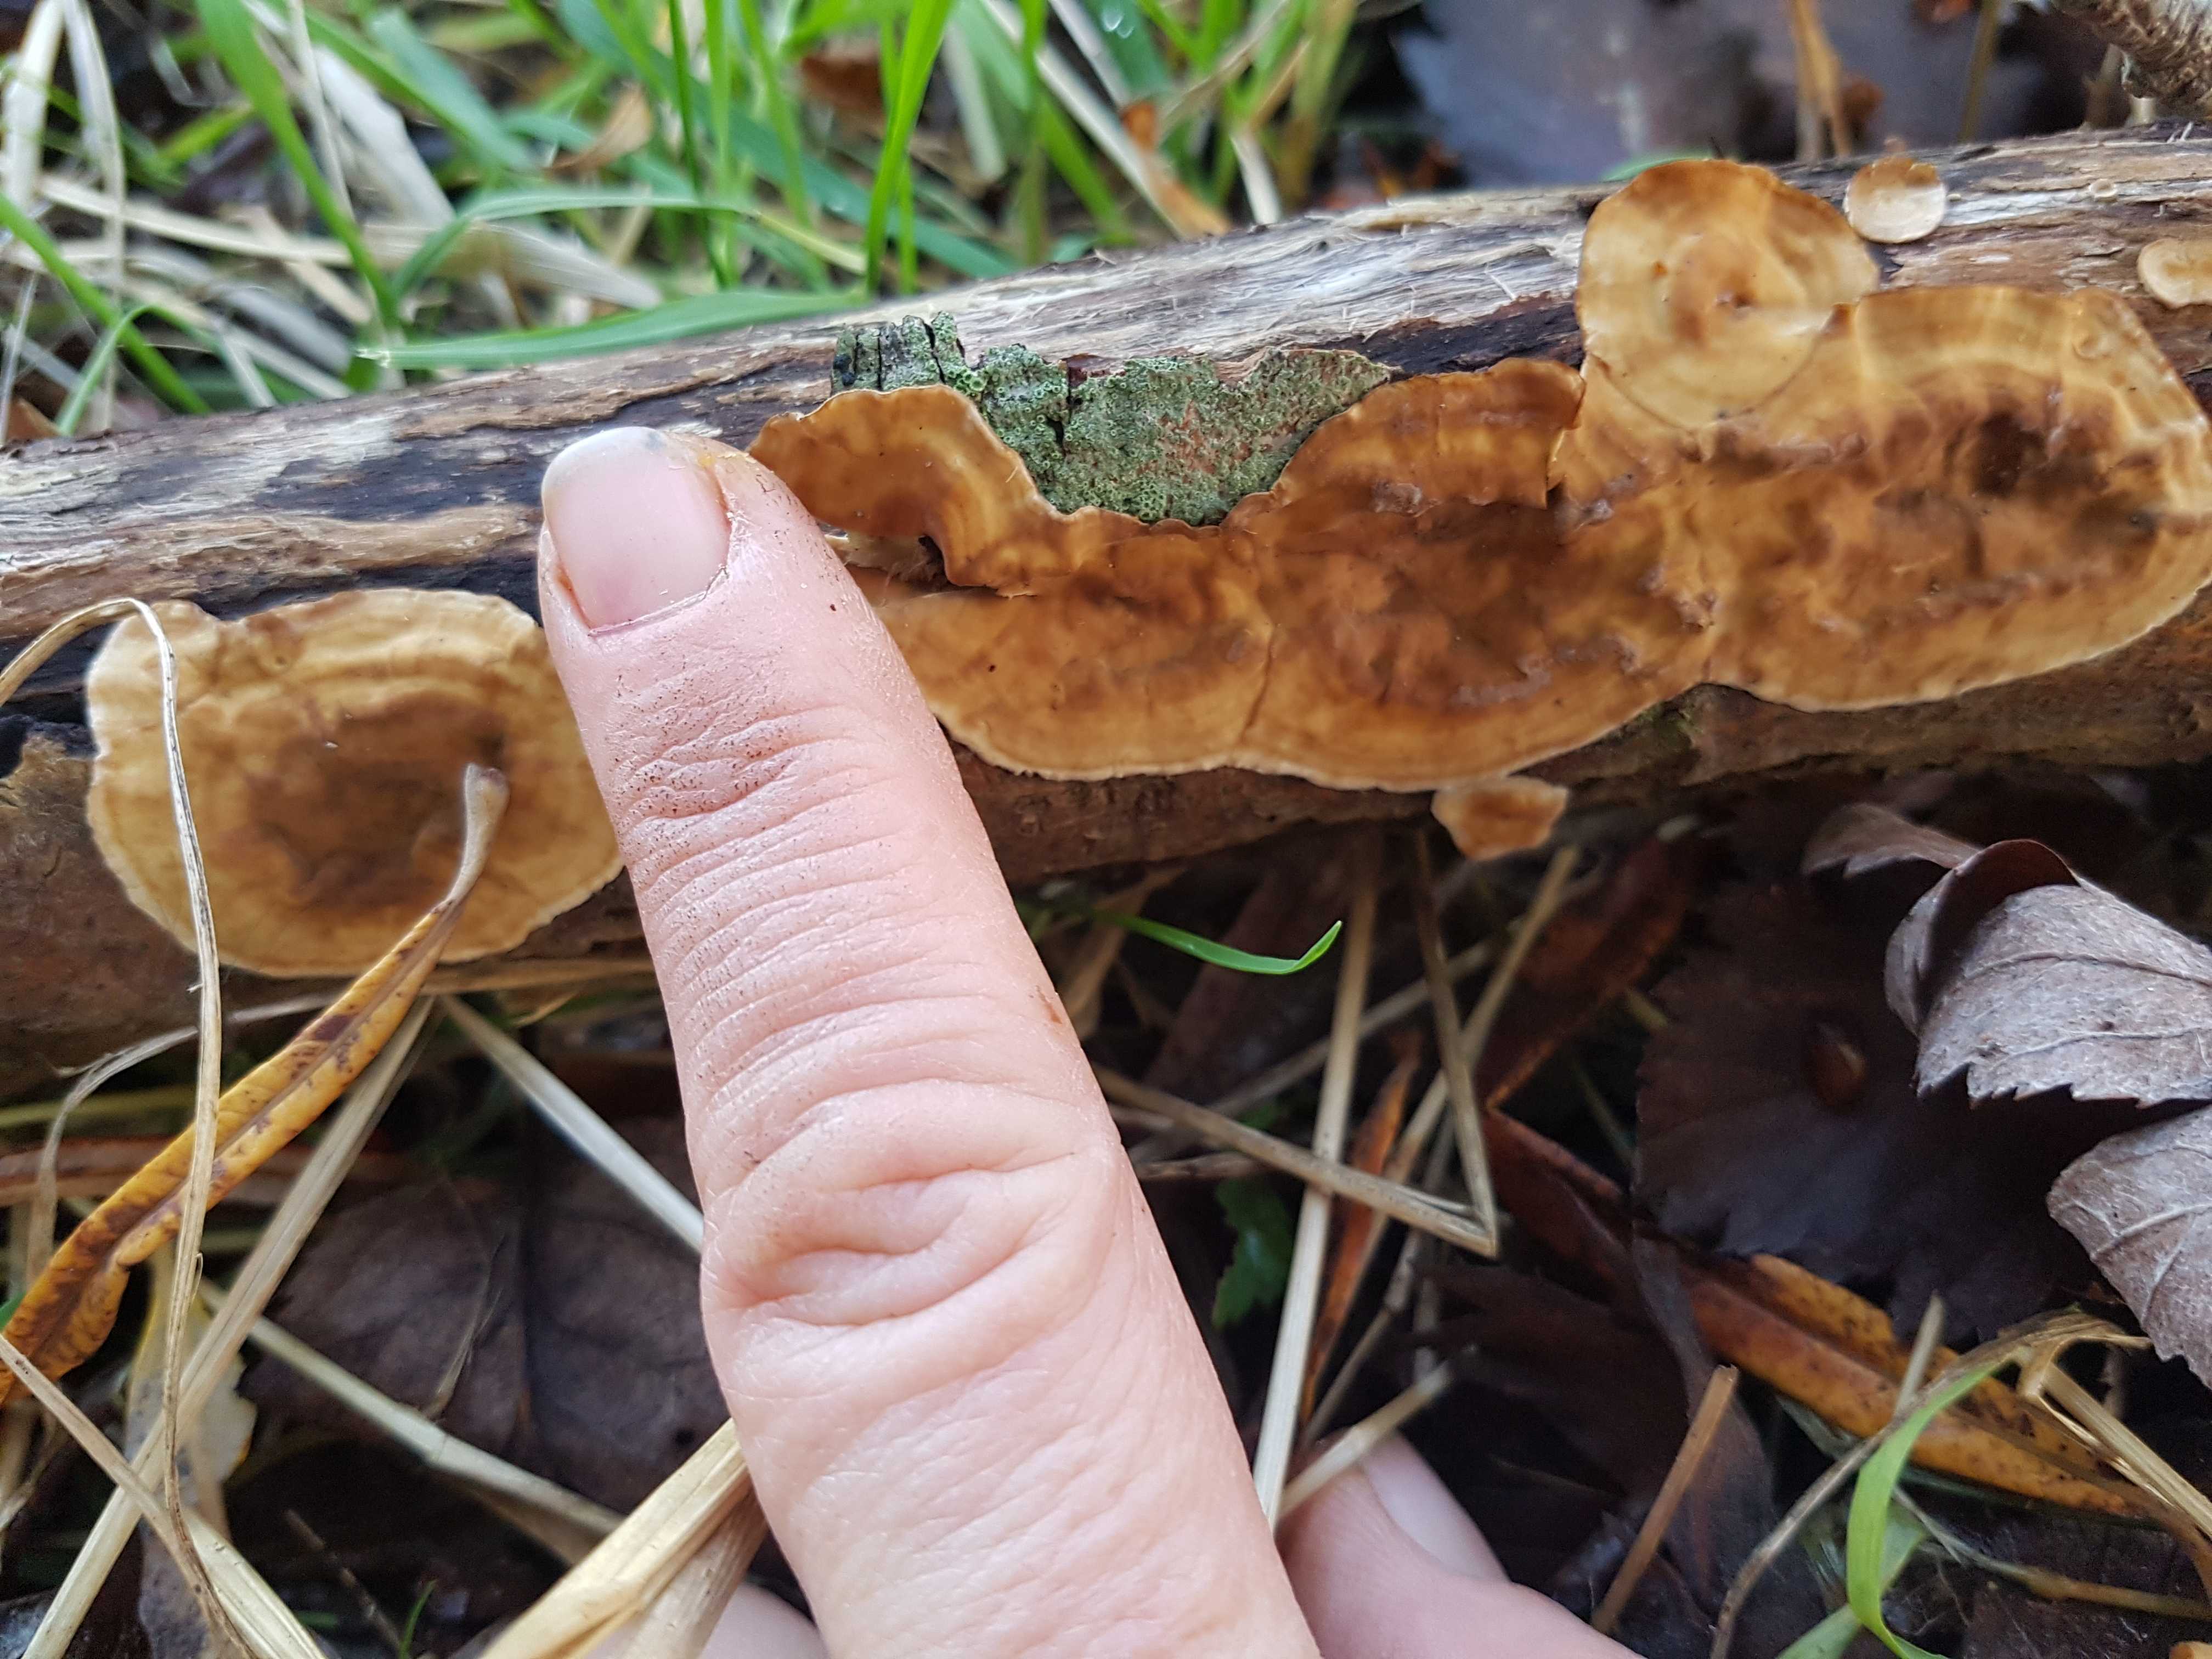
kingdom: Fungi
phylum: Basidiomycota
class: Agaricomycetes
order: Russulales
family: Stereaceae
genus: Stereum
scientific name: Stereum hirsutum
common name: håret lædersvamp
